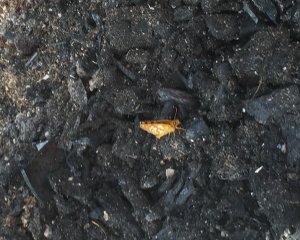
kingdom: Animalia
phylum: Arthropoda
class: Insecta
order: Lepidoptera
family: Hesperiidae
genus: Carterocephalus
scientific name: Carterocephalus palaemon
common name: Chequered Skipper
